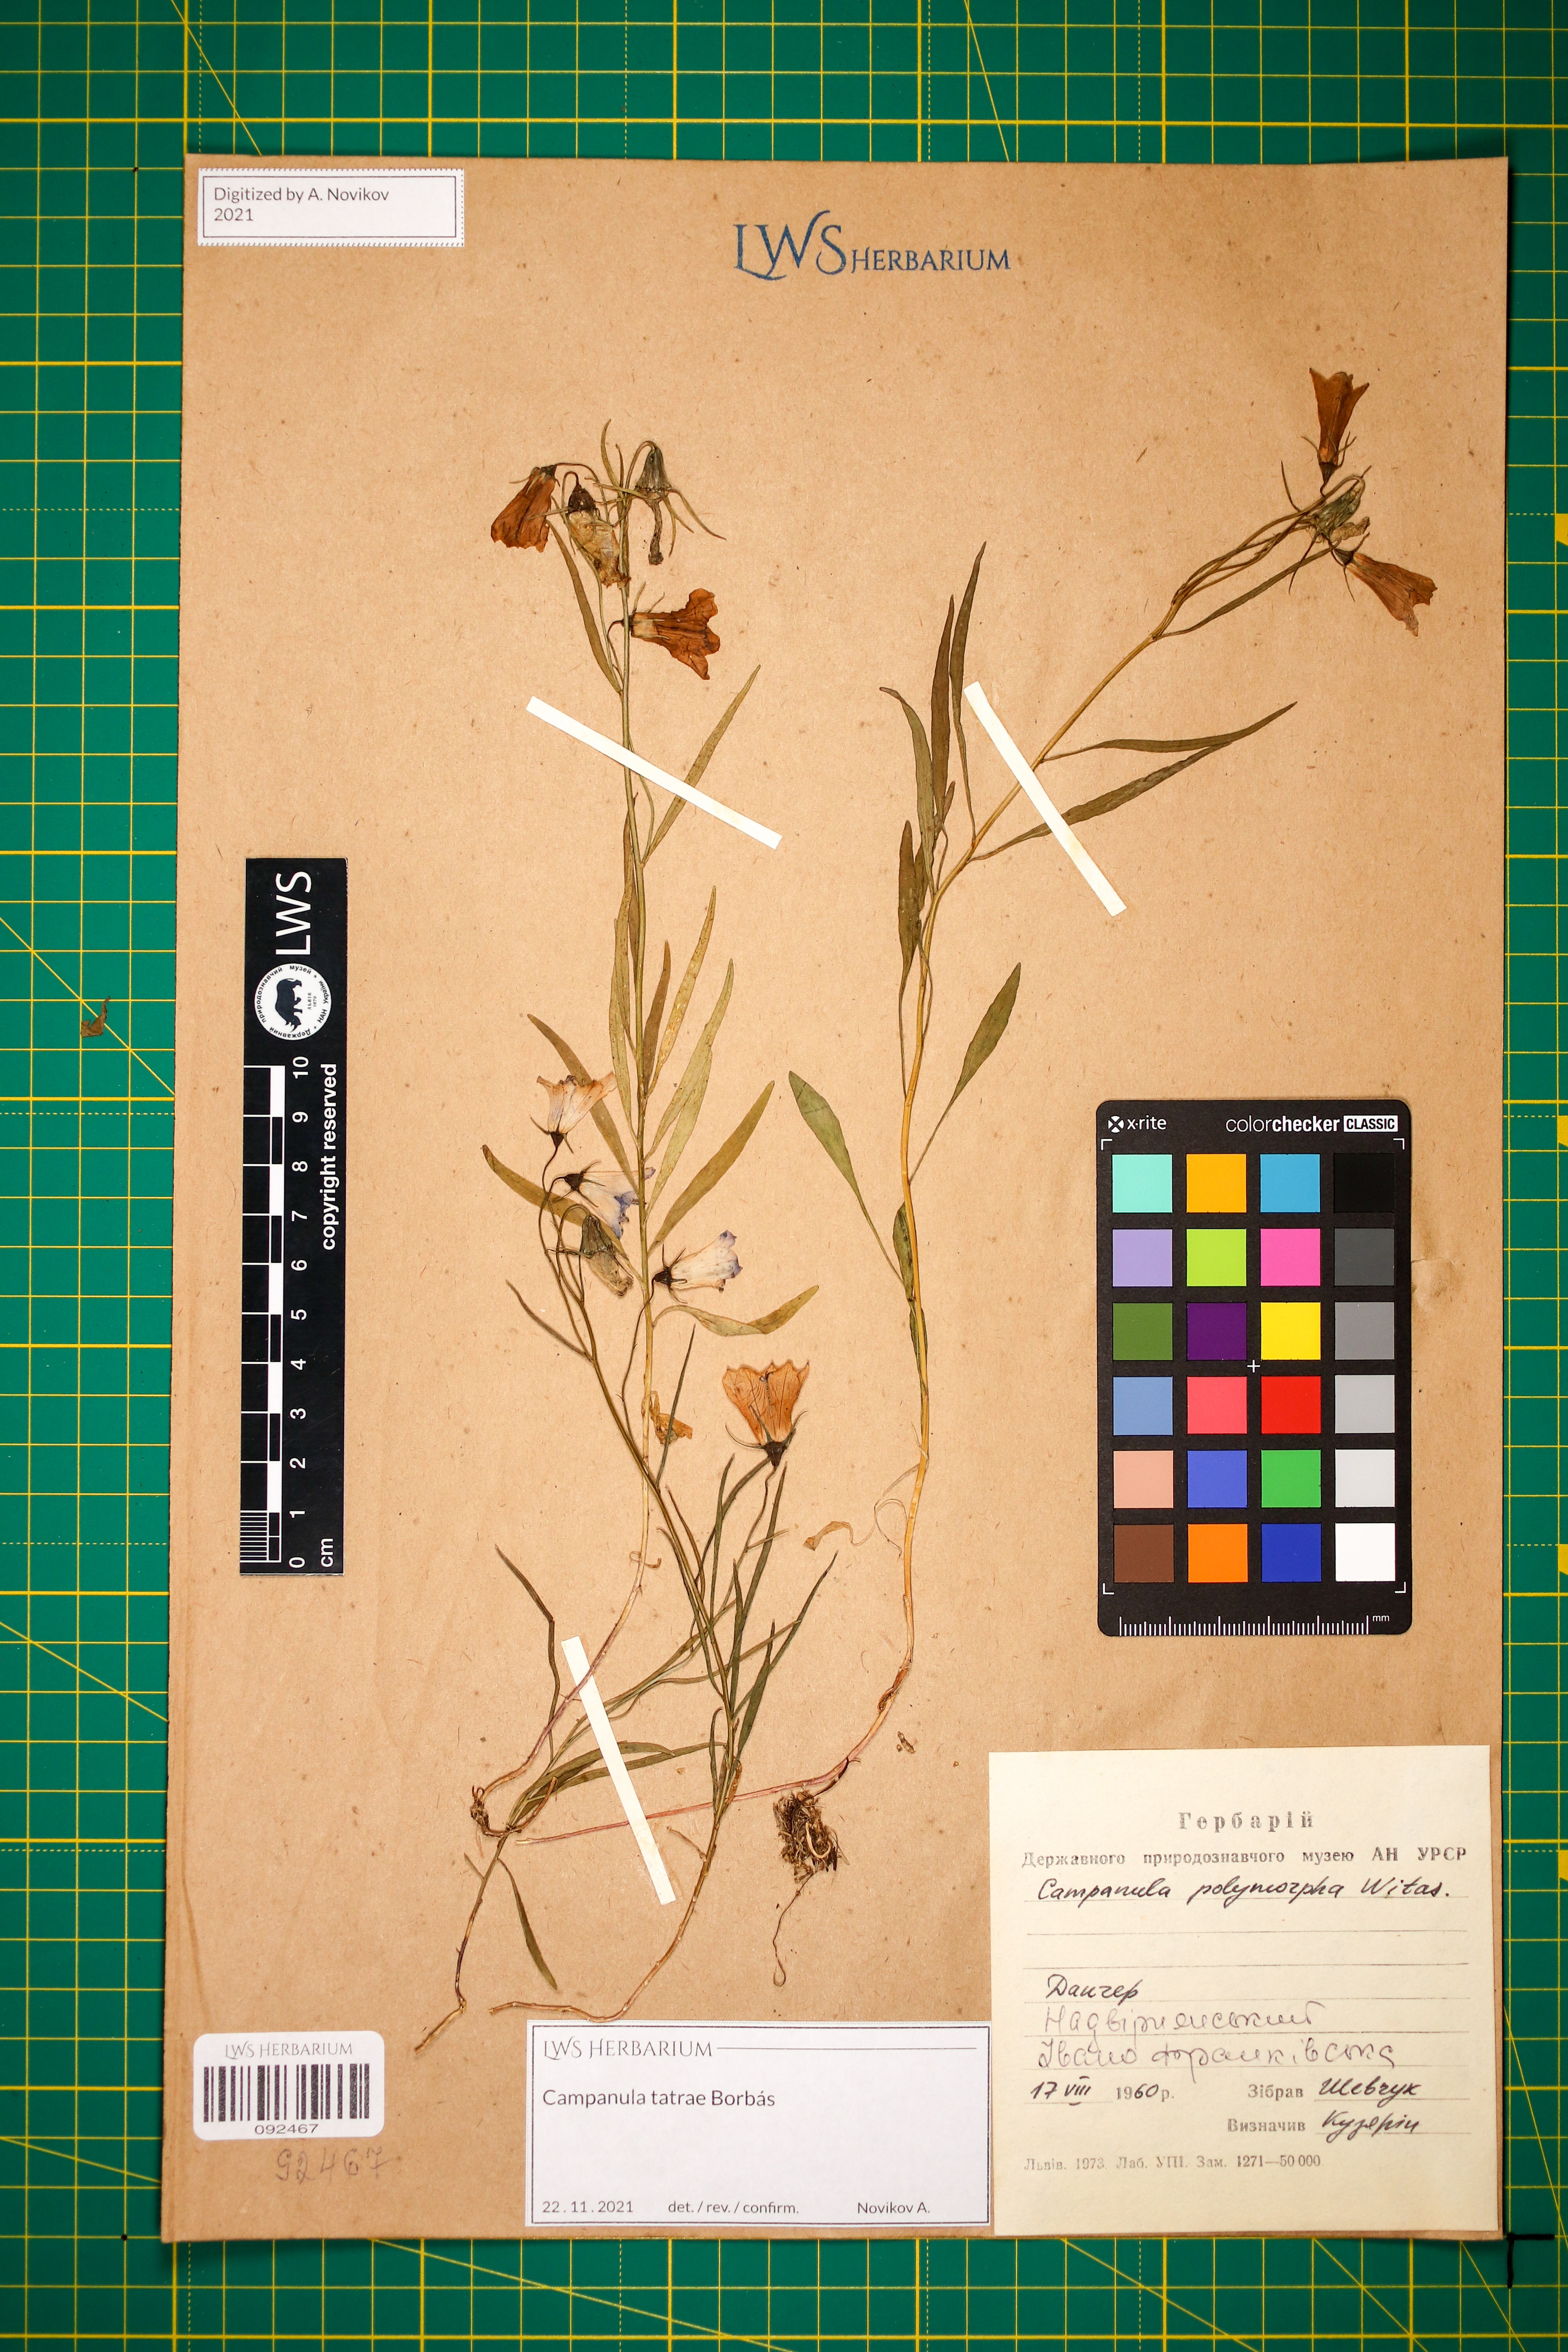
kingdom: Plantae
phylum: Tracheophyta
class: Magnoliopsida
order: Asterales
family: Campanulaceae
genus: Campanula
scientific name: Campanula tatrae
